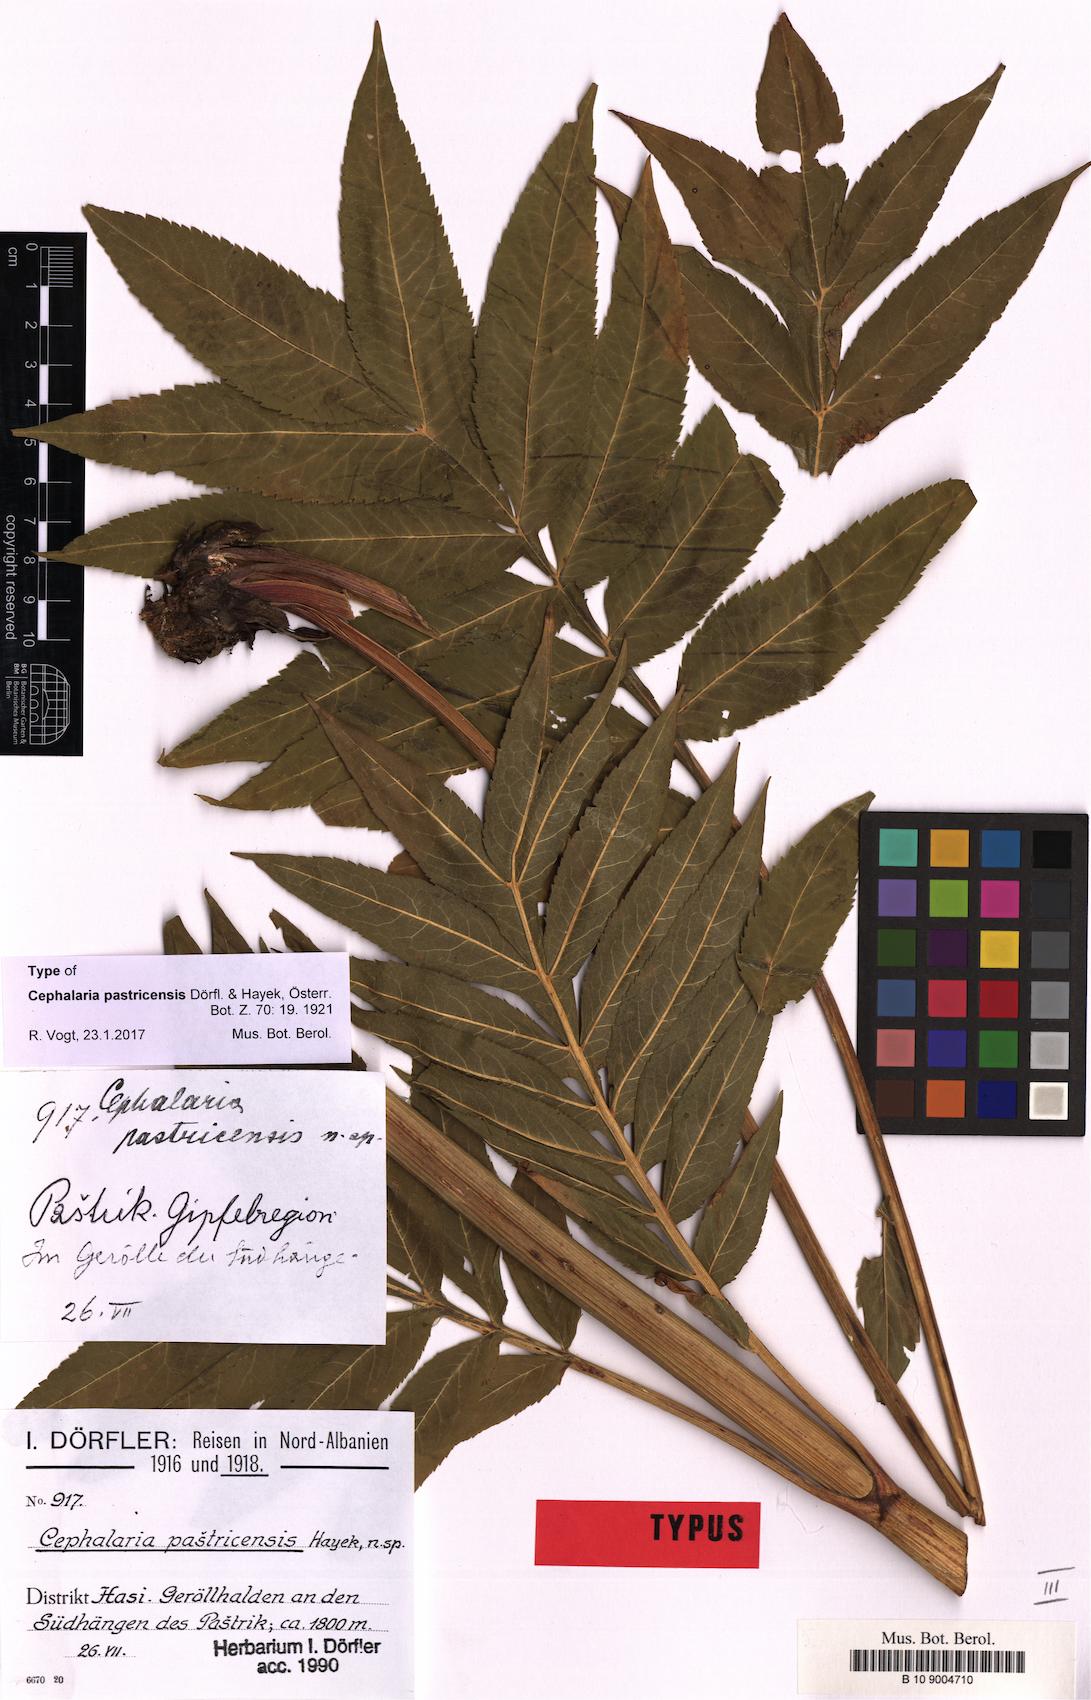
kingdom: Plantae
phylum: Tracheophyta
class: Magnoliopsida
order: Dipsacales
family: Caprifoliaceae
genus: Cephalaria
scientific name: Cephalaria pastricensis
